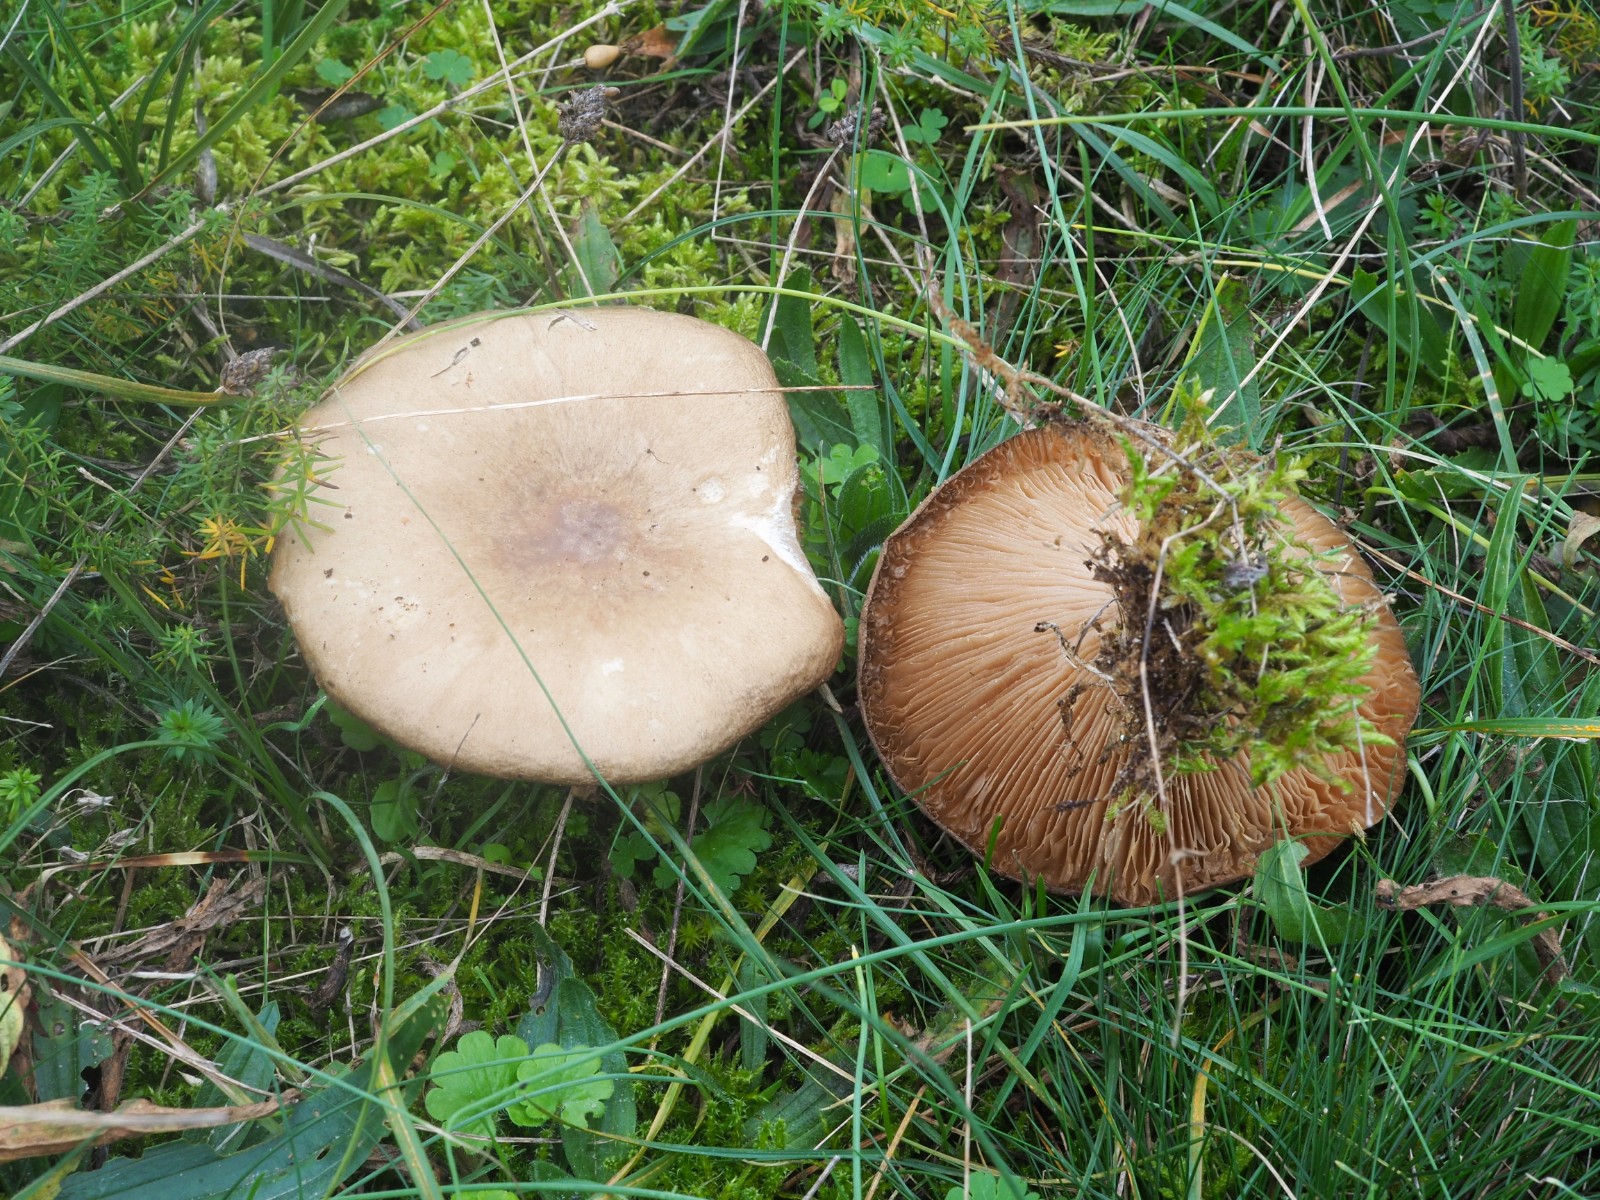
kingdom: Fungi
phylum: Basidiomycota
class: Agaricomycetes
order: Agaricales
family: Tricholomataceae
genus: Melanoleuca
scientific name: Melanoleuca
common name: munkehat
